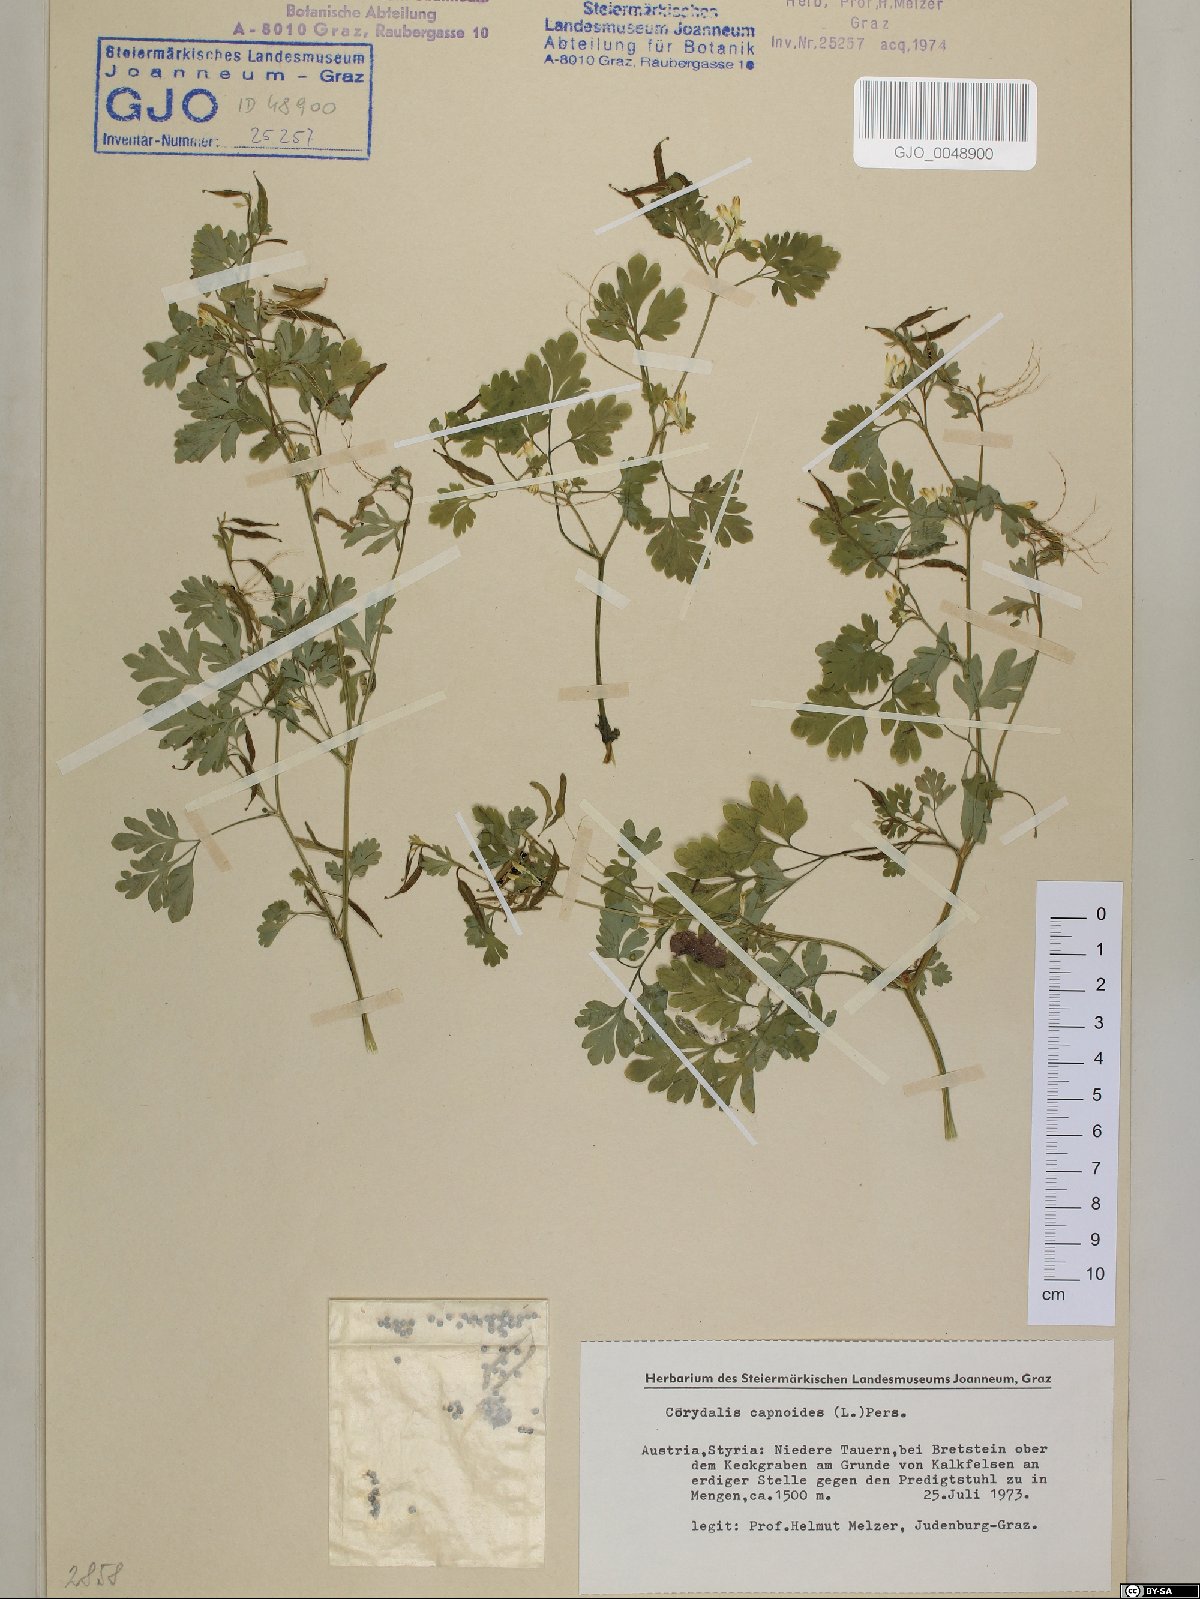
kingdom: Plantae
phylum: Tracheophyta
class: Magnoliopsida
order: Ranunculales
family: Papaveraceae
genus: Corydalis
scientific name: Corydalis capnoides
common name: Beaked corydalis
